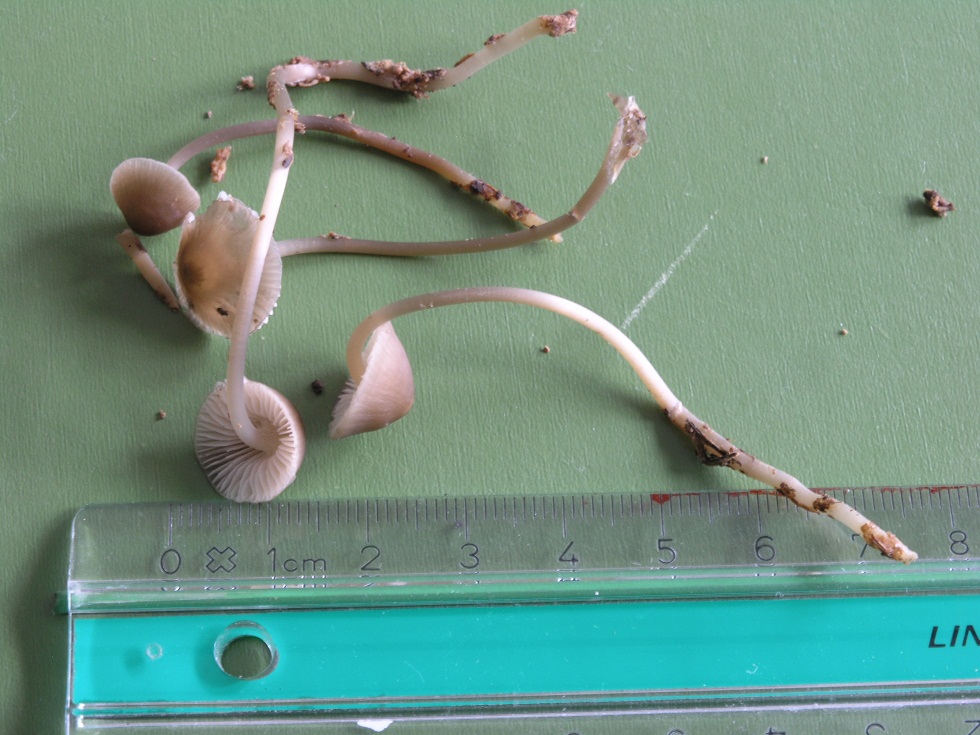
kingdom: Fungi
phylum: Basidiomycota
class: Agaricomycetes
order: Agaricales
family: Mycenaceae
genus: Mycena
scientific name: Mycena galericulata
